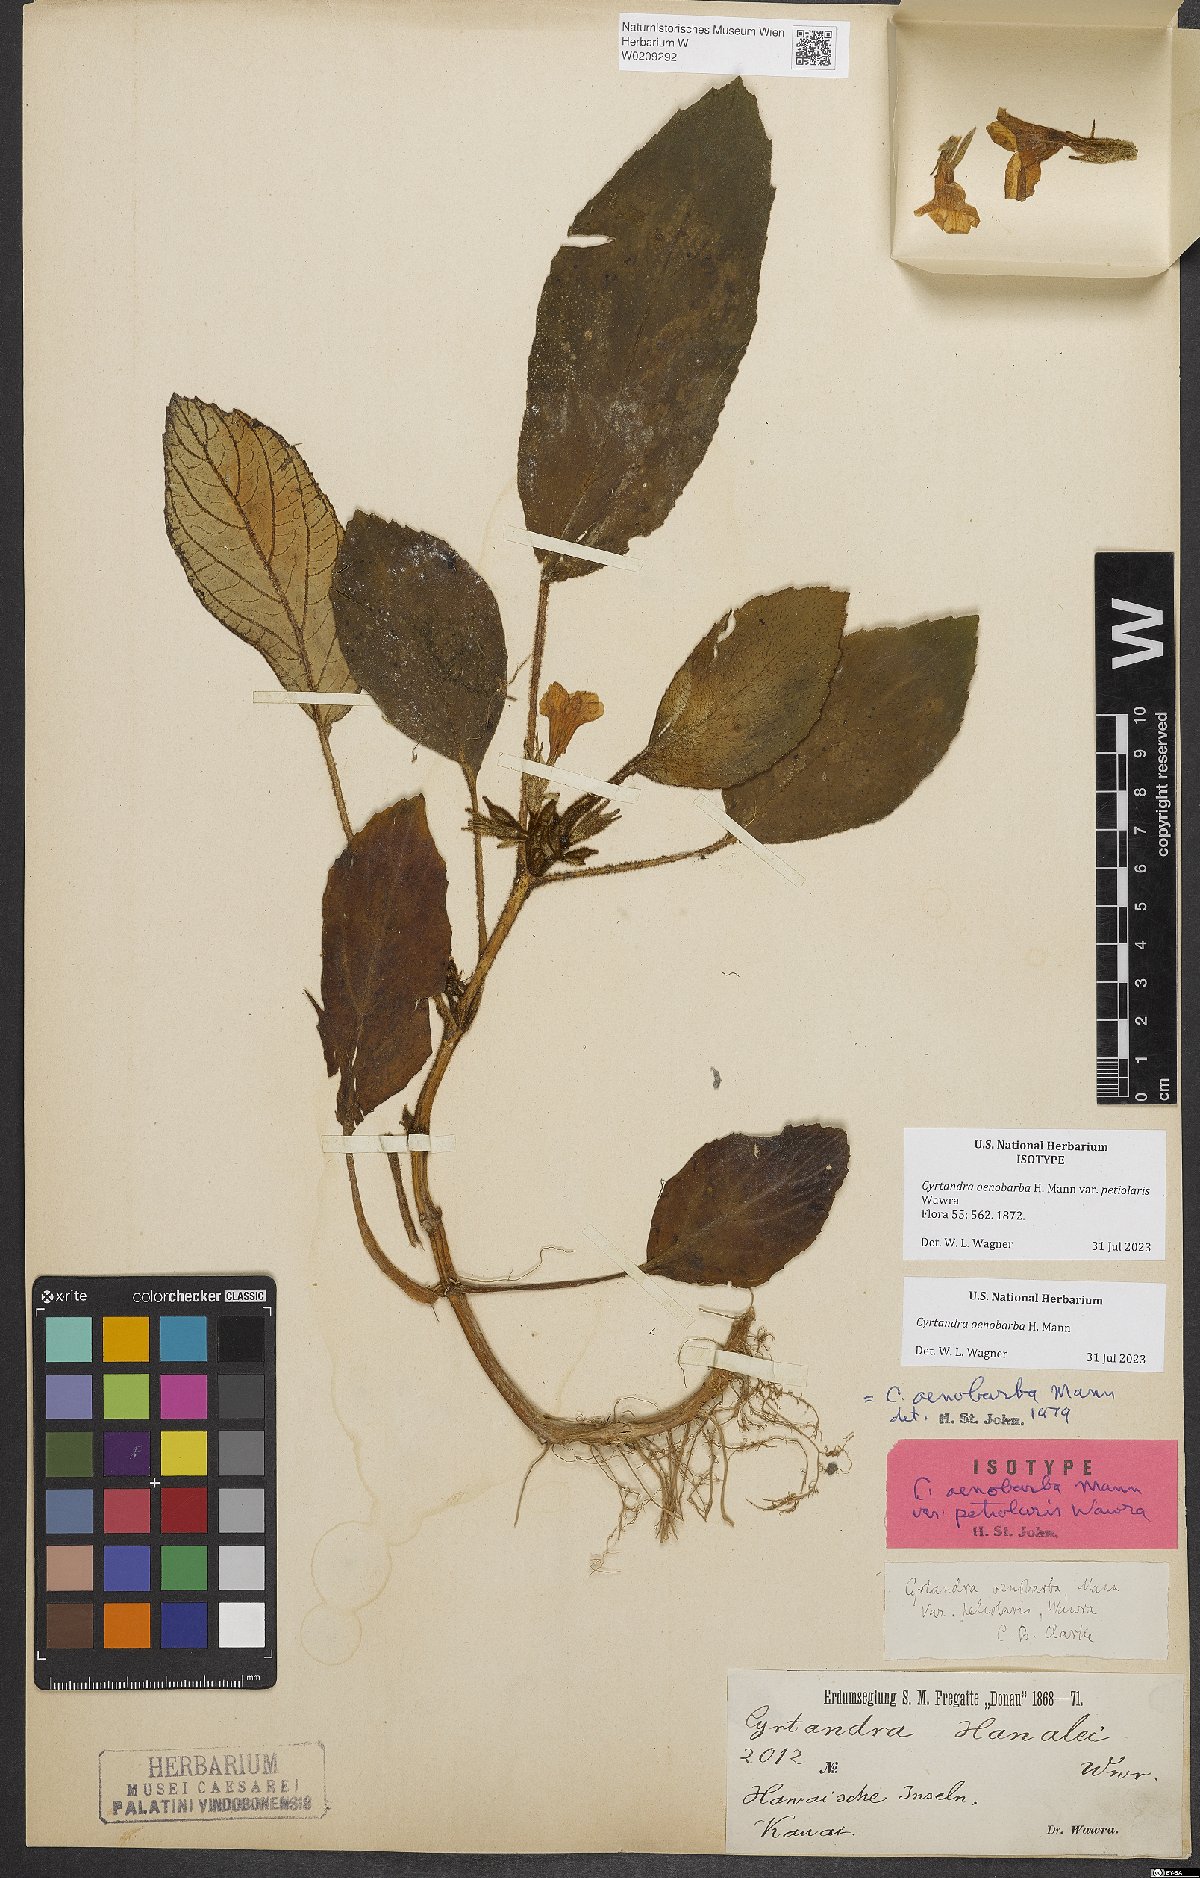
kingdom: Plantae
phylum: Tracheophyta
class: Magnoliopsida
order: Lamiales
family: Gesneriaceae
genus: Cyrtandra
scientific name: Cyrtandra oenobarba
